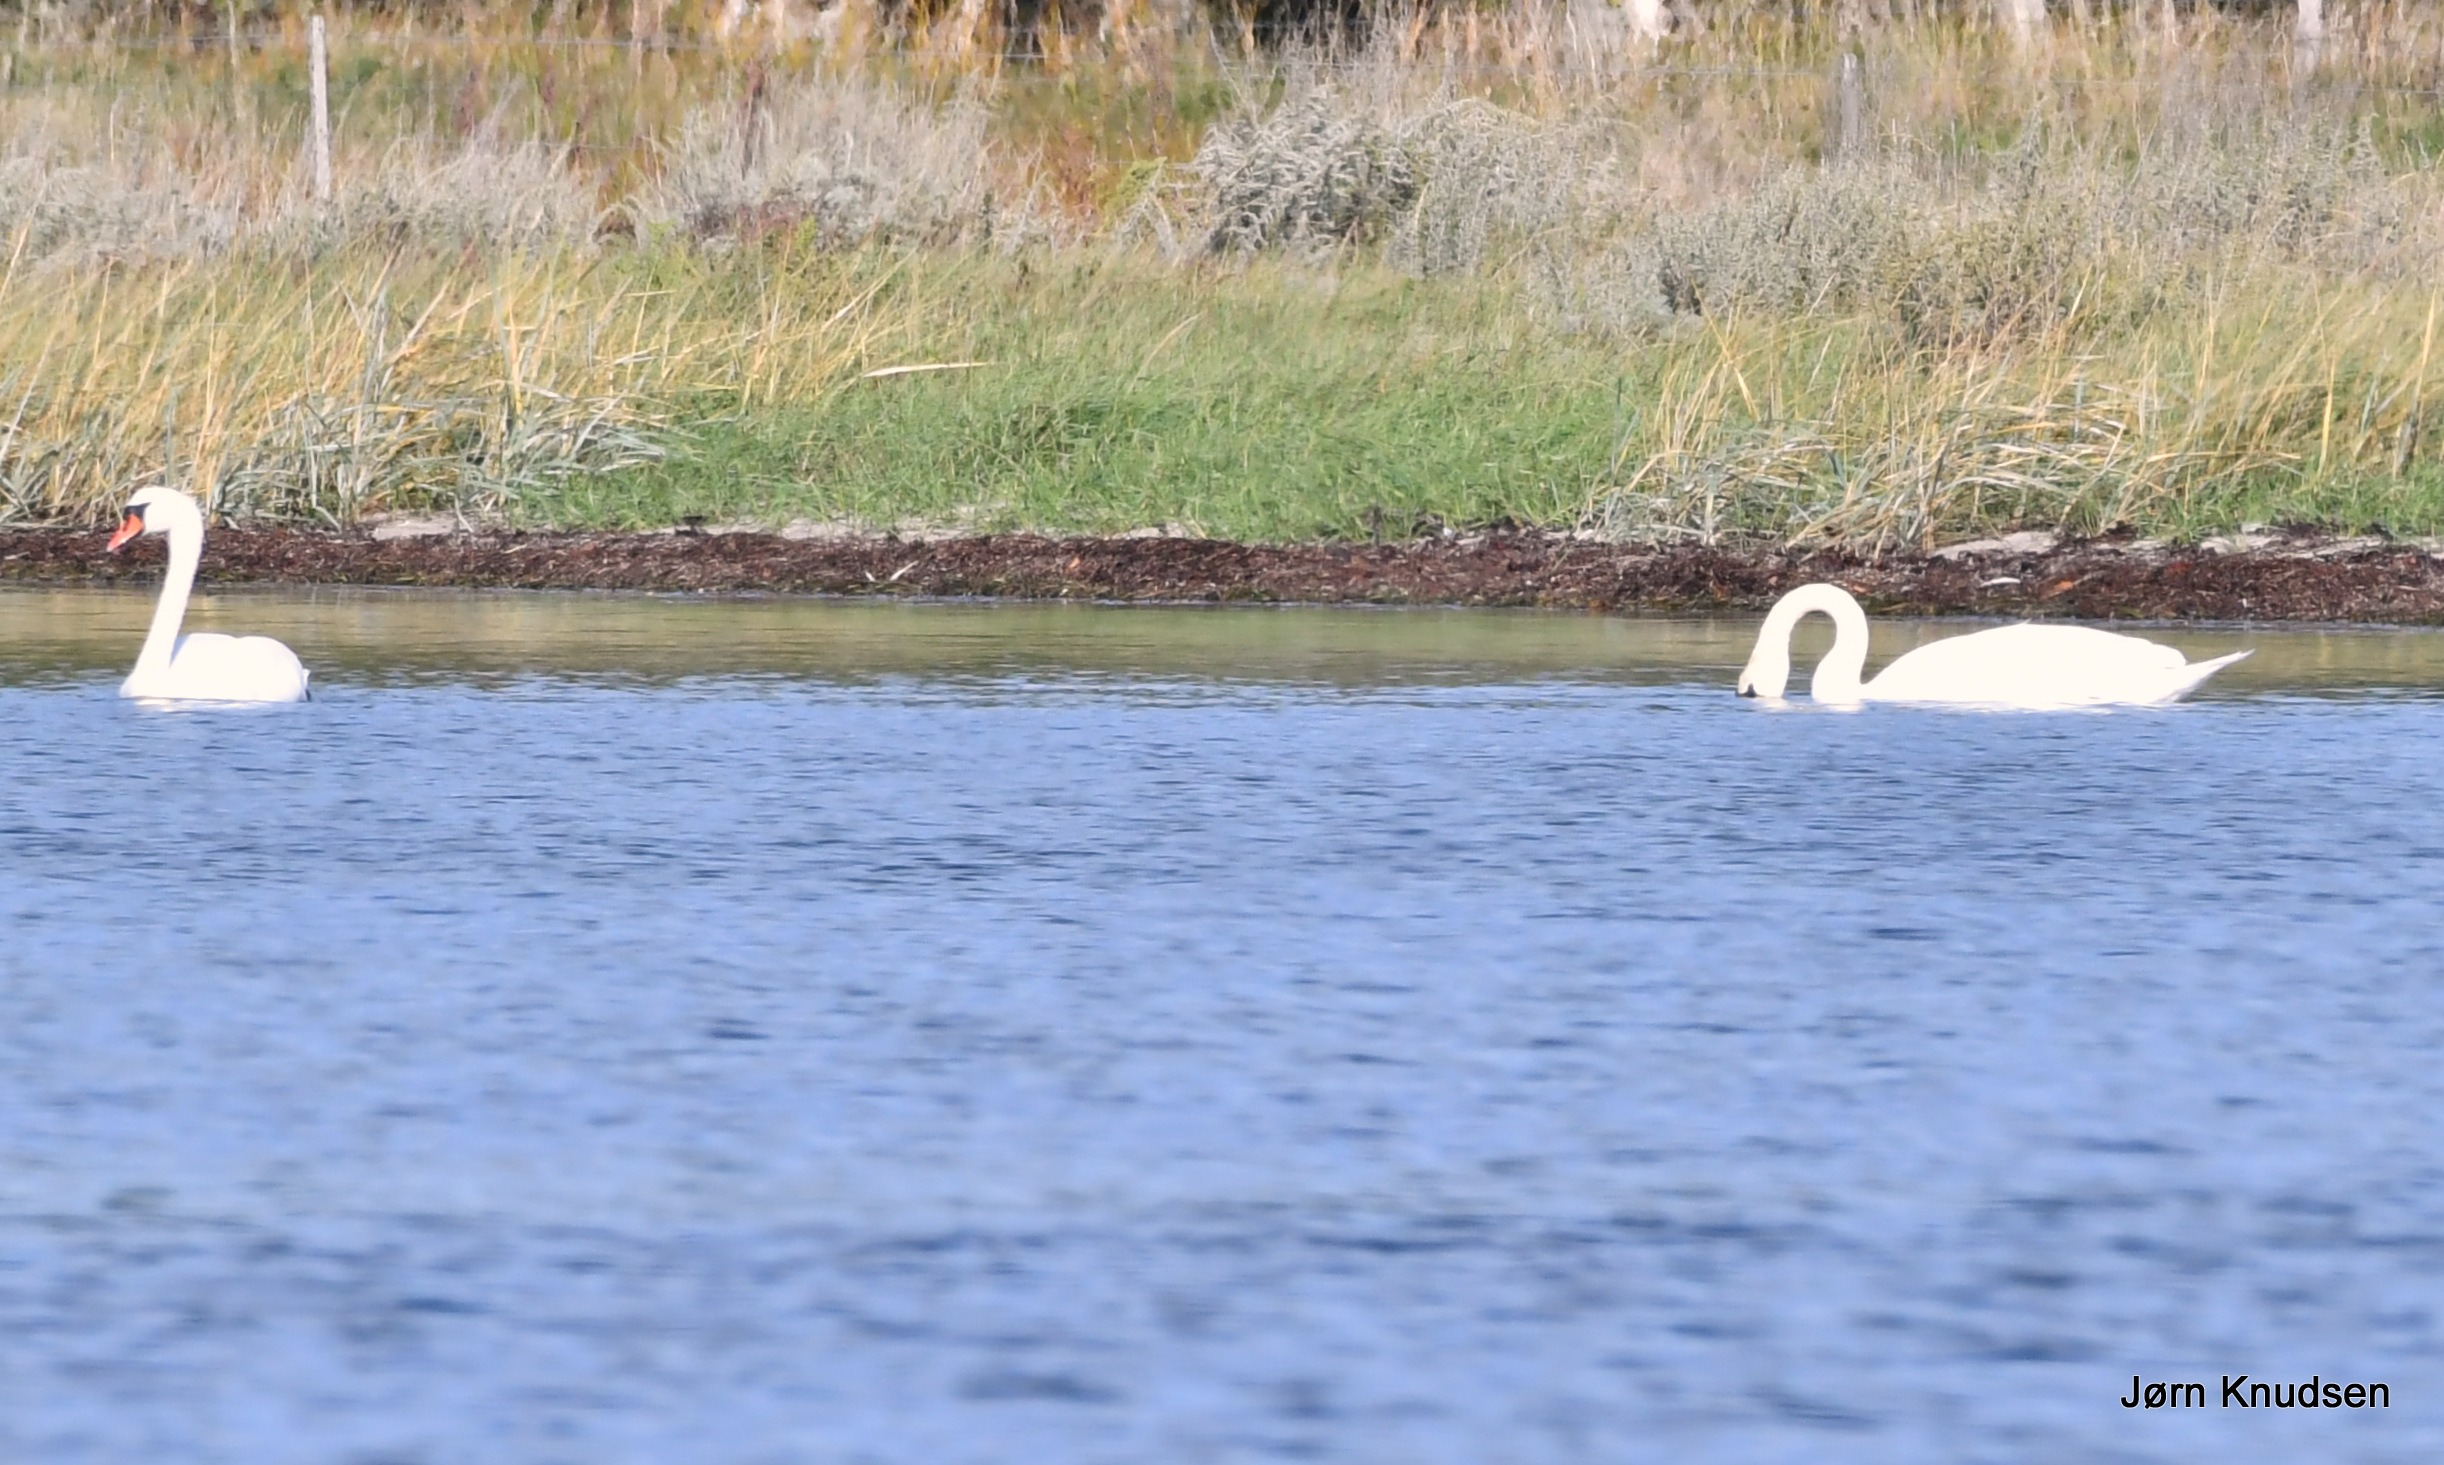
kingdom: Animalia
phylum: Chordata
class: Aves
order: Anseriformes
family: Anatidae
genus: Cygnus
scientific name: Cygnus olor
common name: Knopsvane
